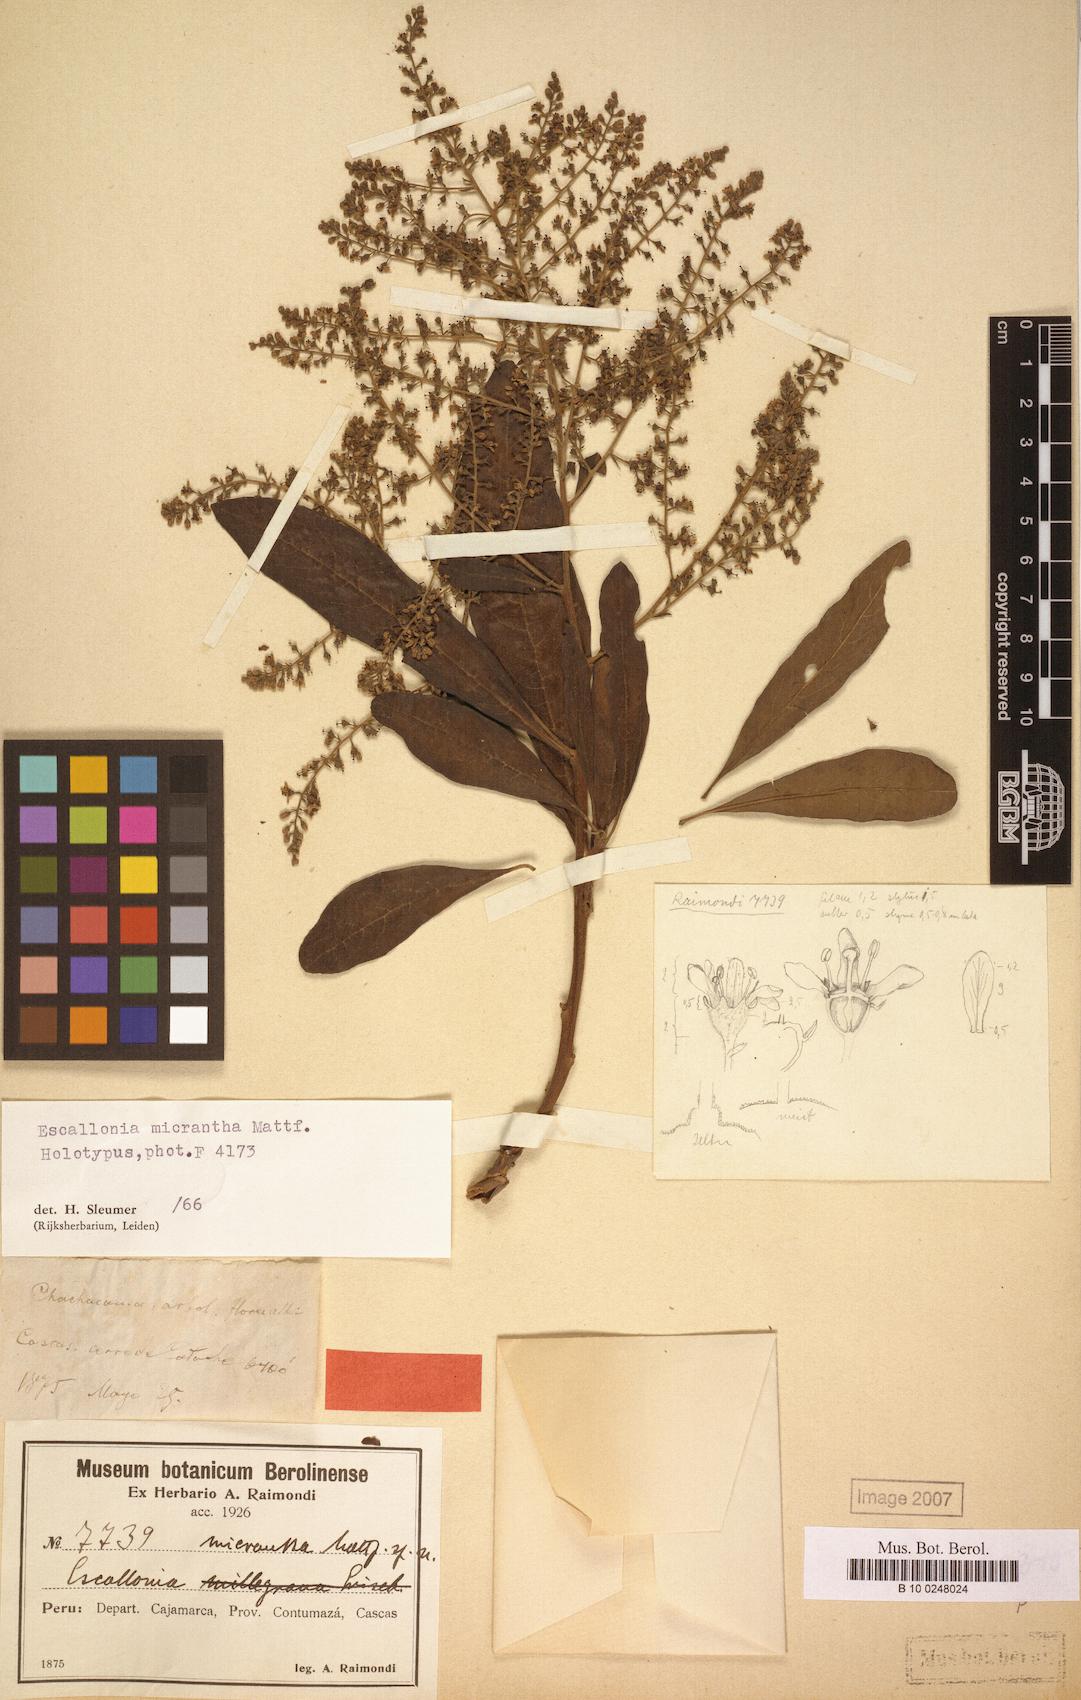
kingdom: Plantae
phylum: Tracheophyta
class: Magnoliopsida
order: Escalloniales
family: Escalloniaceae
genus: Escallonia
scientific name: Escallonia micrantha
